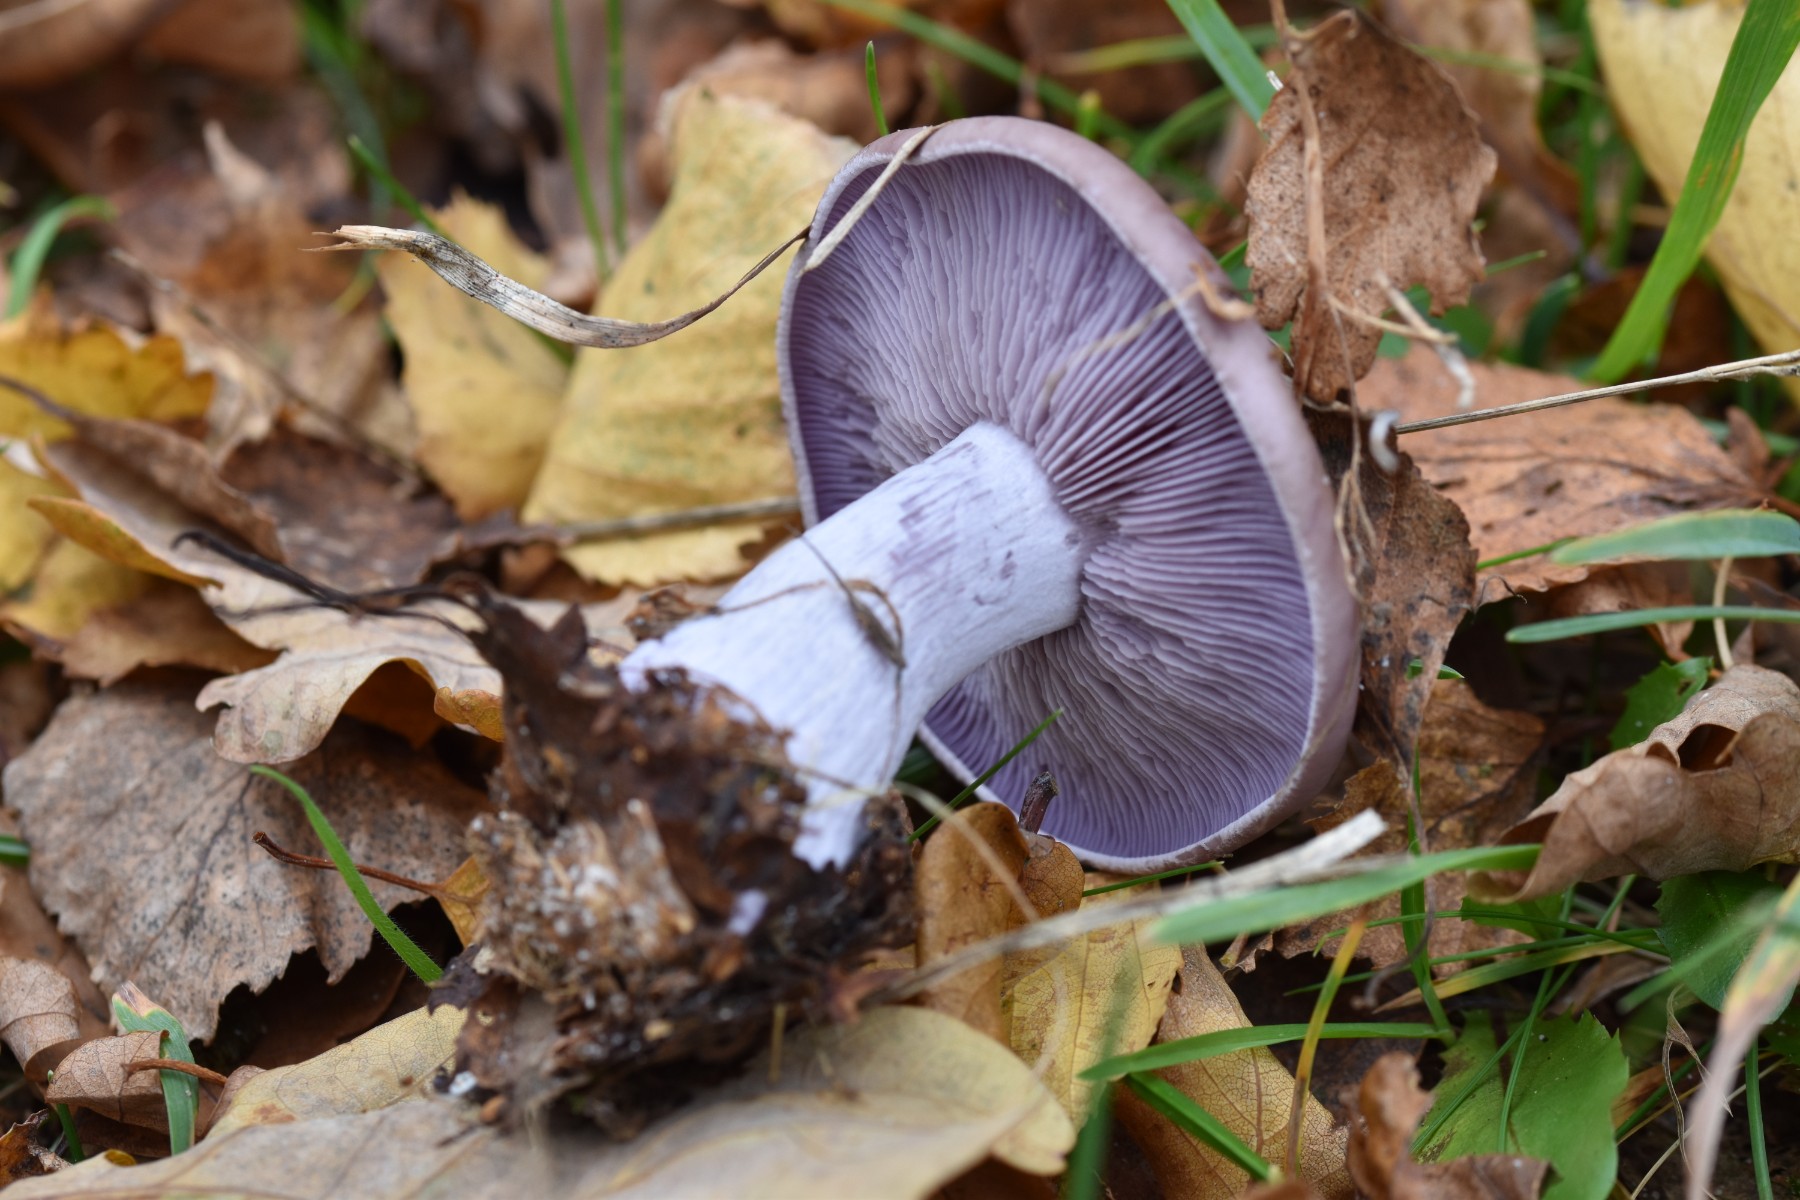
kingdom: Fungi
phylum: Basidiomycota
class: Agaricomycetes
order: Agaricales
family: Tricholomataceae
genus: Lepista
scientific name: Lepista nuda
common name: violet hekseringshat
